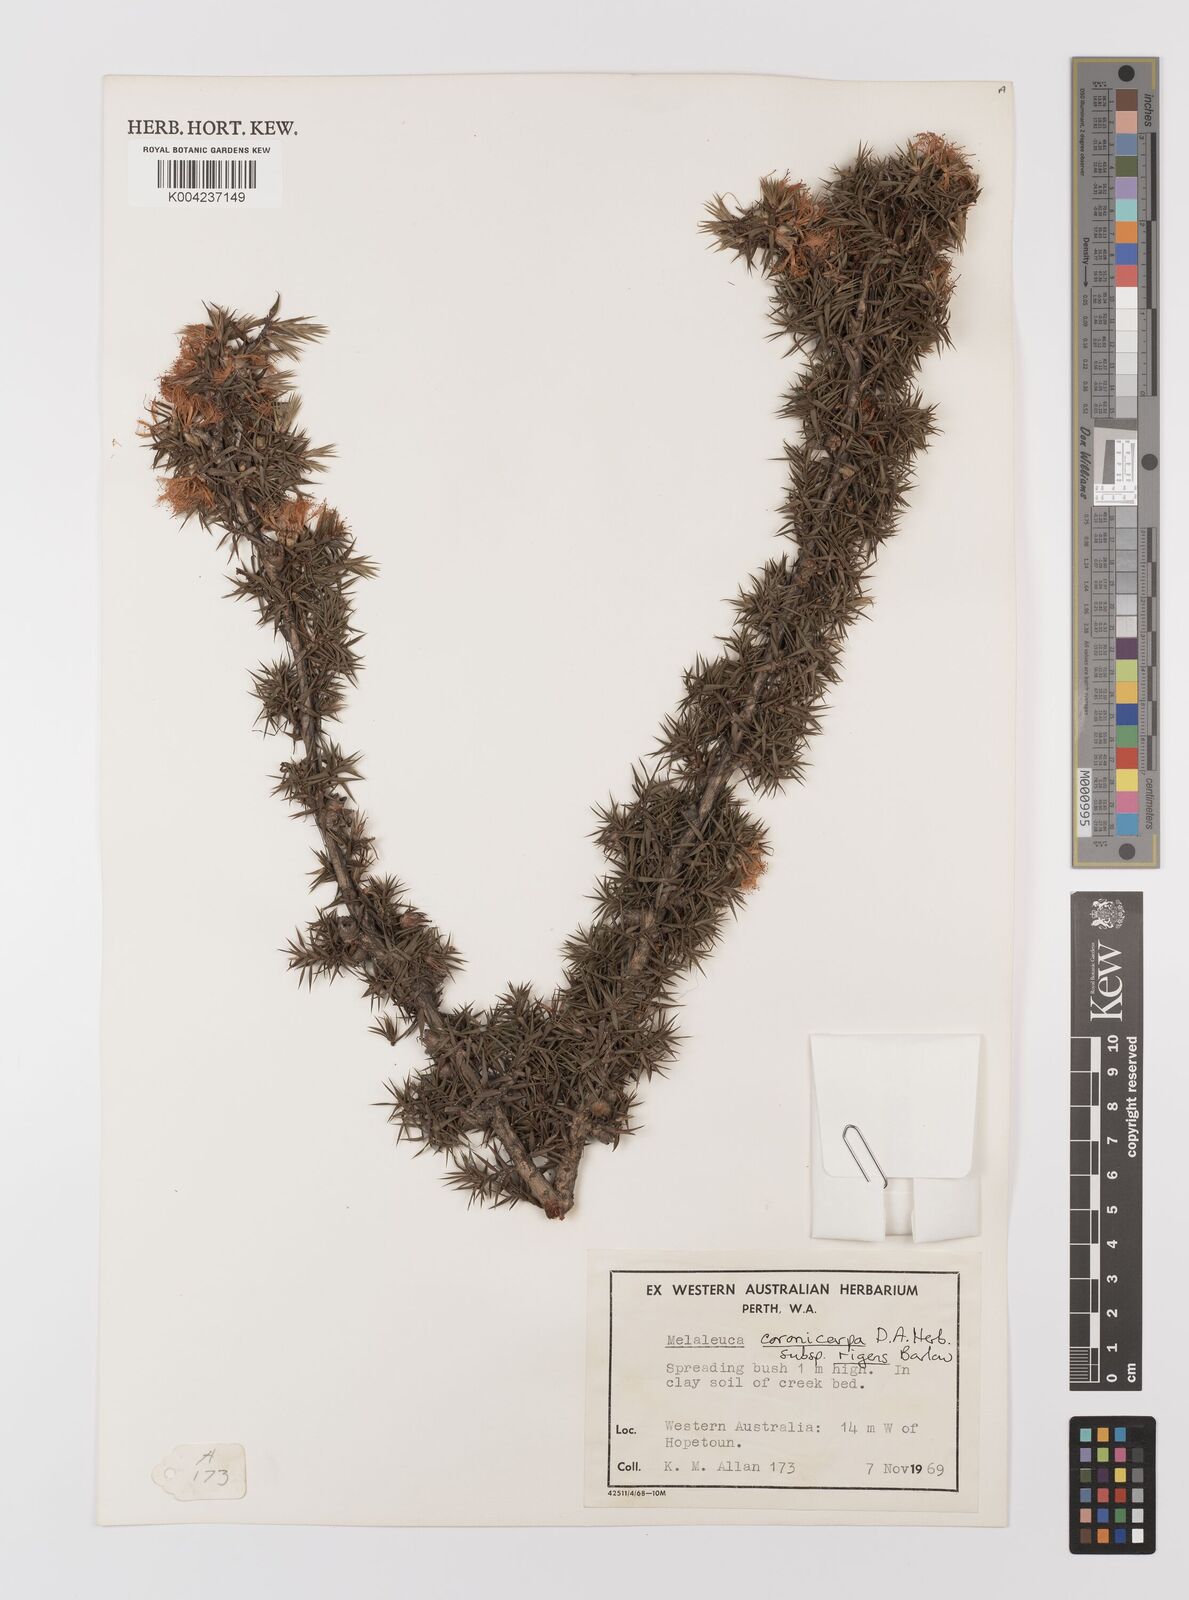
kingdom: Plantae
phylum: Tracheophyta
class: Magnoliopsida
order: Myrtales
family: Myrtaceae
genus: Melaleuca
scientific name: Melaleuca coronicarpa
